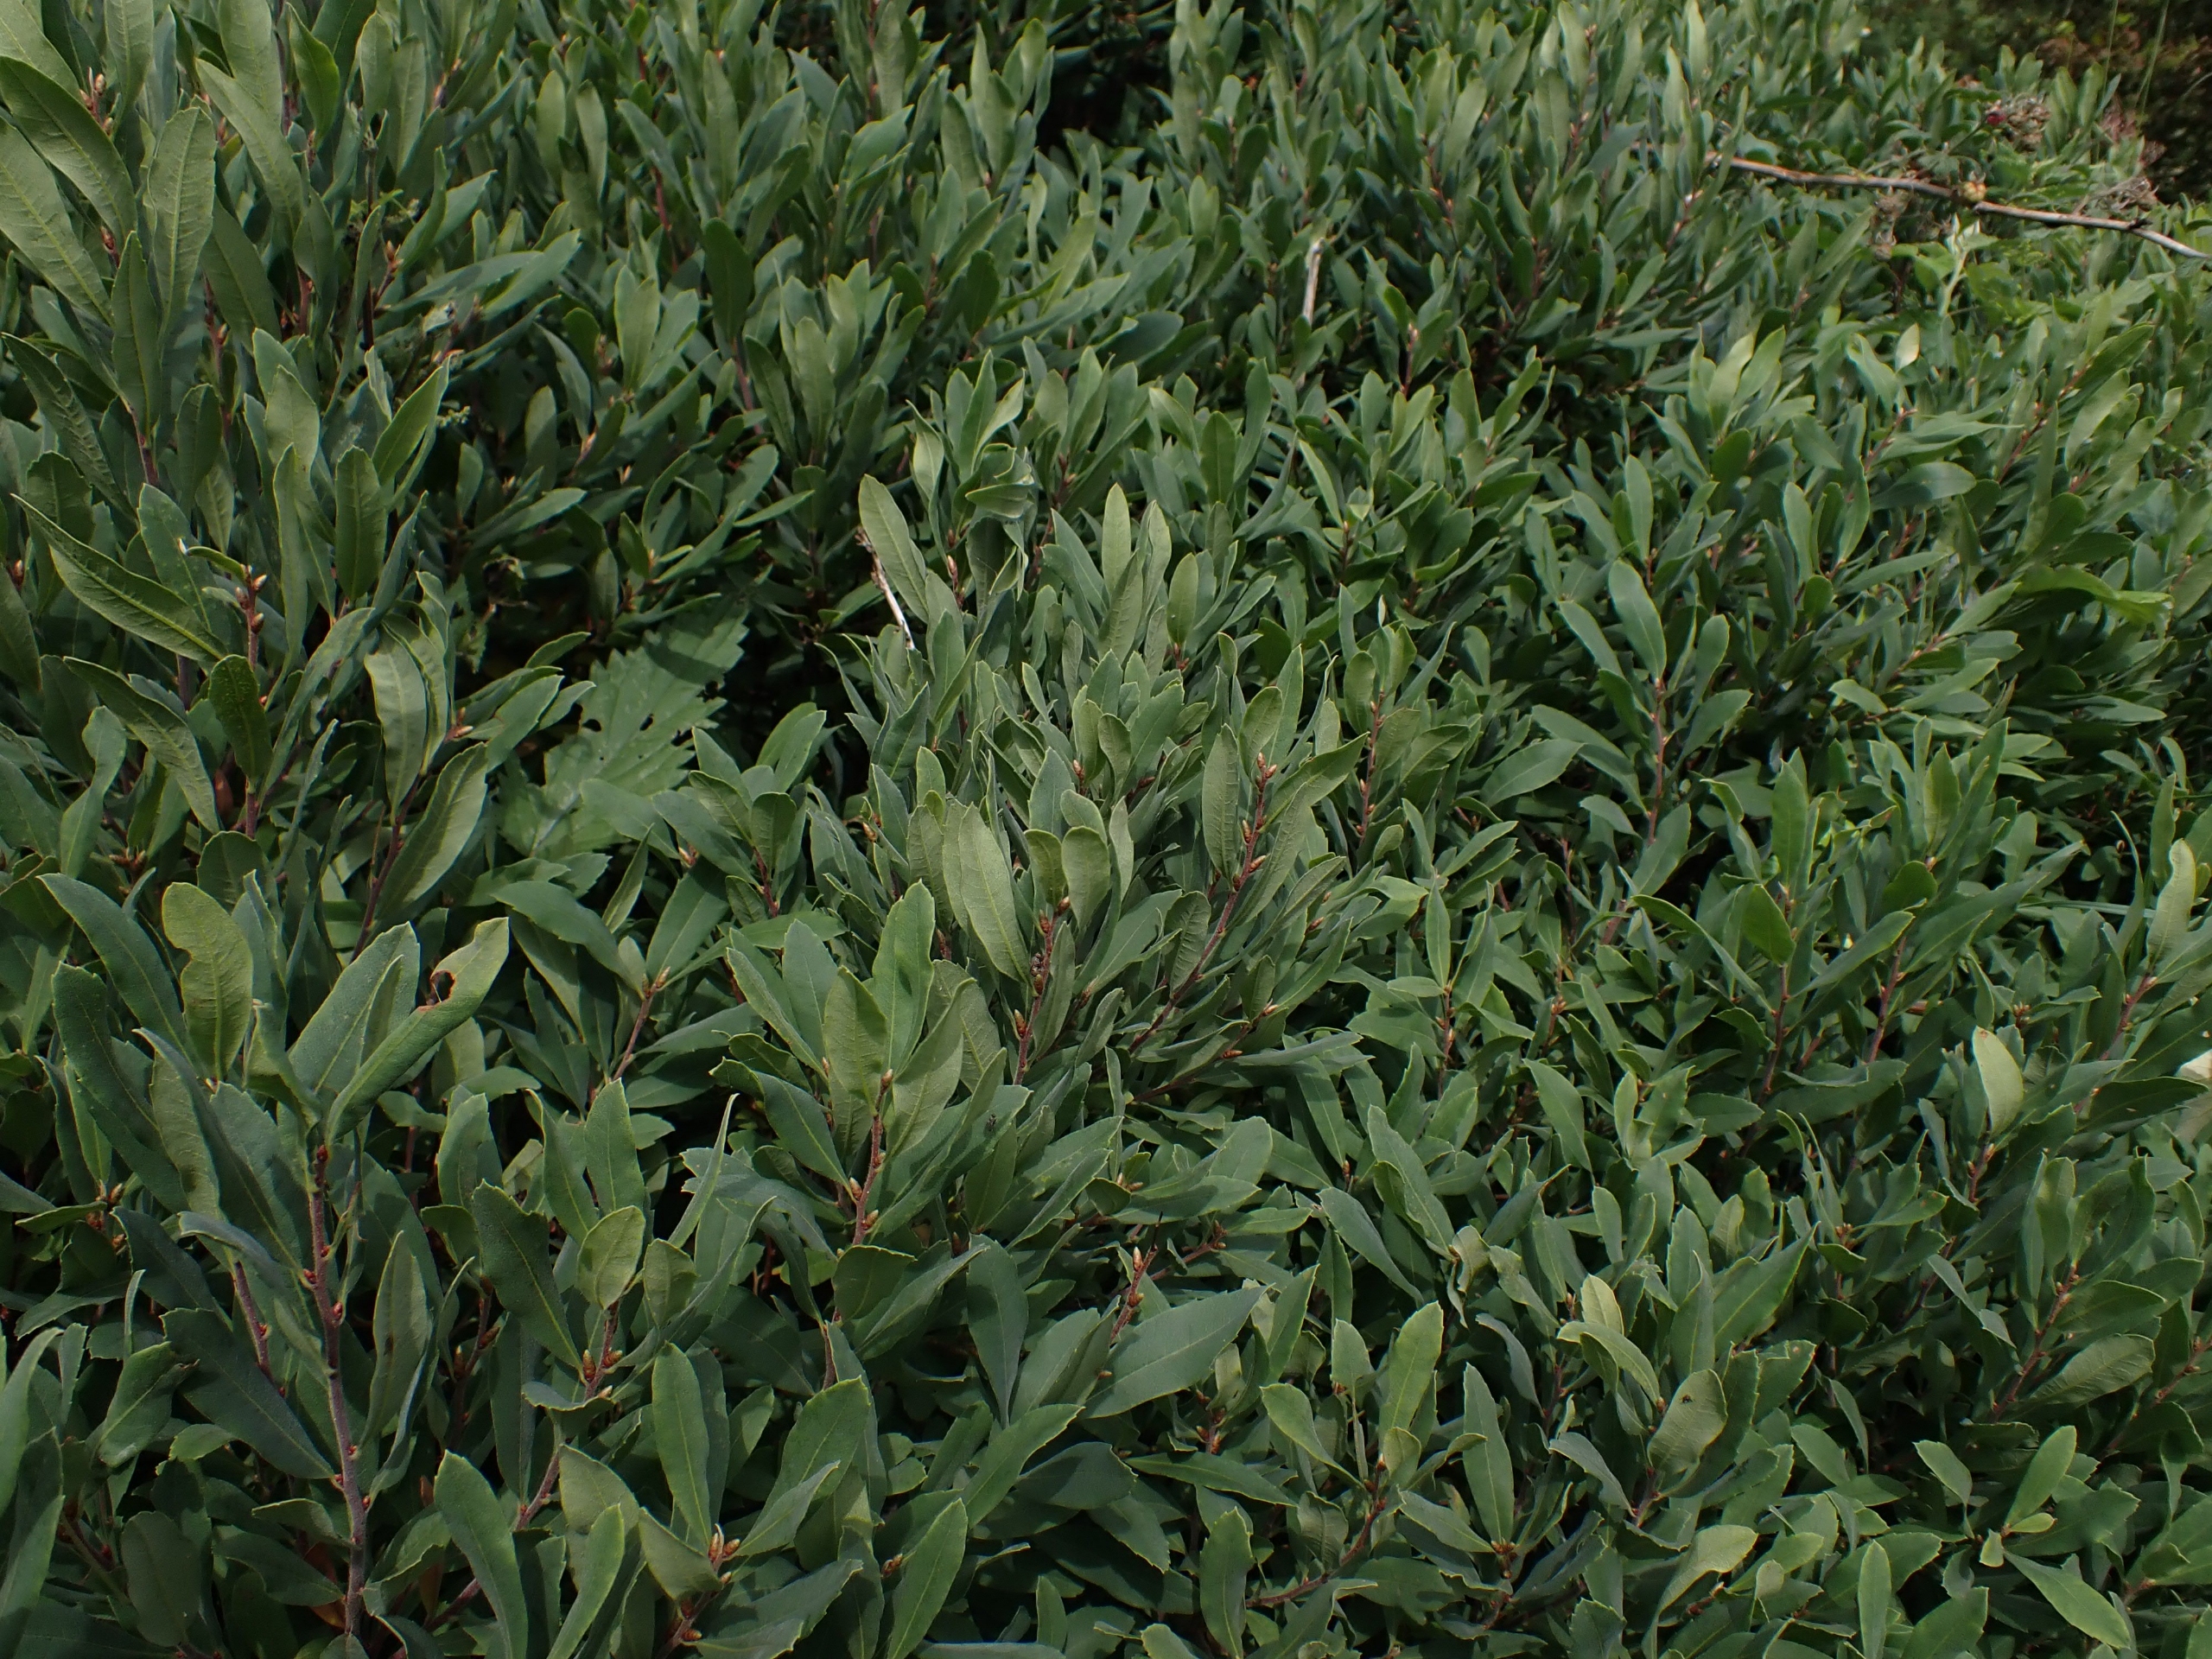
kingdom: Plantae
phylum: Tracheophyta
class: Magnoliopsida
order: Fagales
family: Myricaceae
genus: Myrica
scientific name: Myrica gale
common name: Pors
